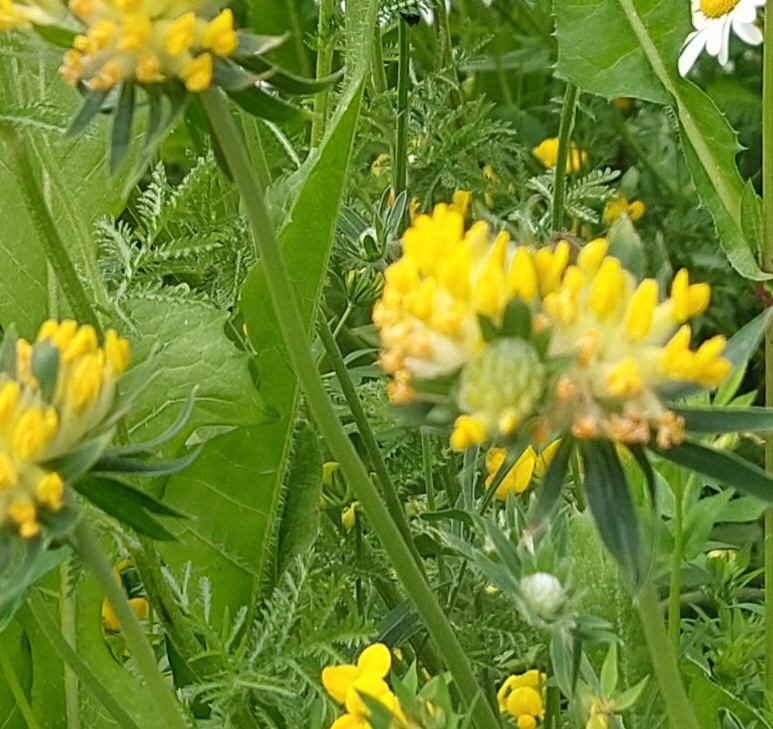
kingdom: Plantae
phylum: Tracheophyta
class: Magnoliopsida
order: Fabales
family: Fabaceae
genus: Anthyllis
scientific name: Anthyllis vulneraria
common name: Rundbælg
